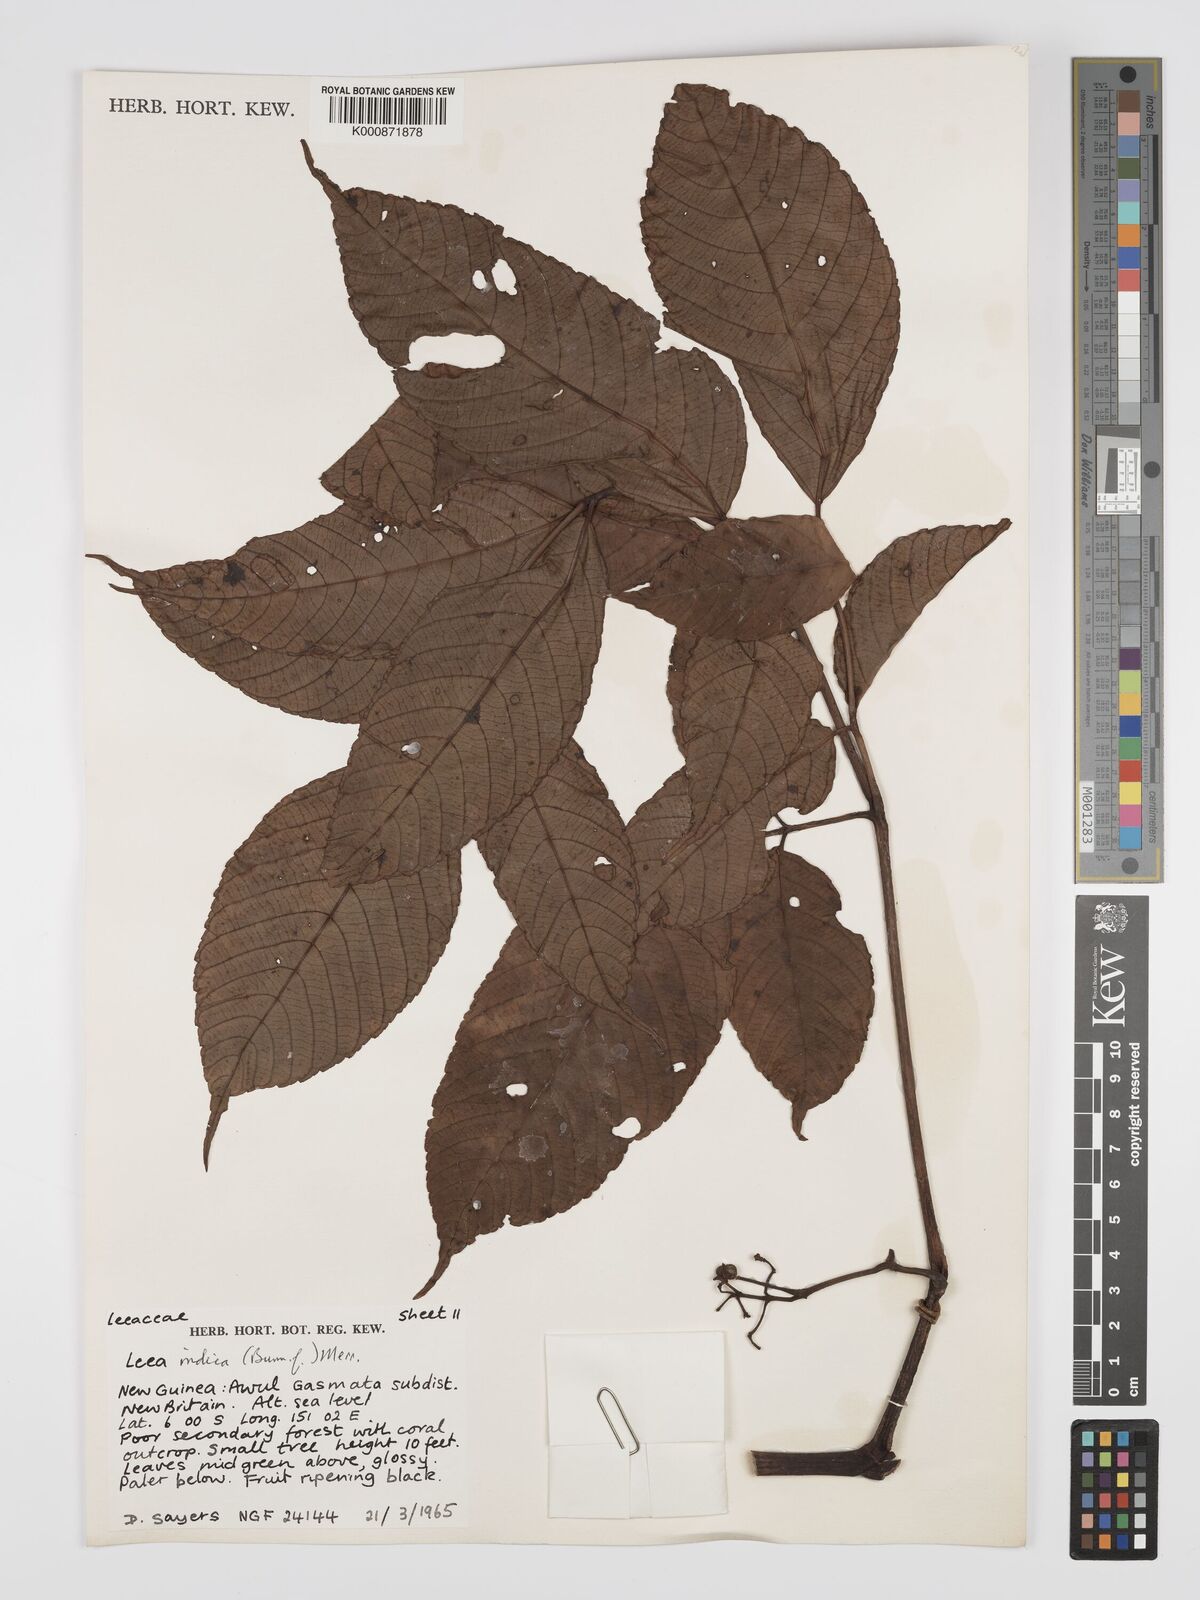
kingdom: Plantae
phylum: Tracheophyta
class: Magnoliopsida
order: Vitales
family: Vitaceae
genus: Leea
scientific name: Leea indica
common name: Bandicoot-berry
